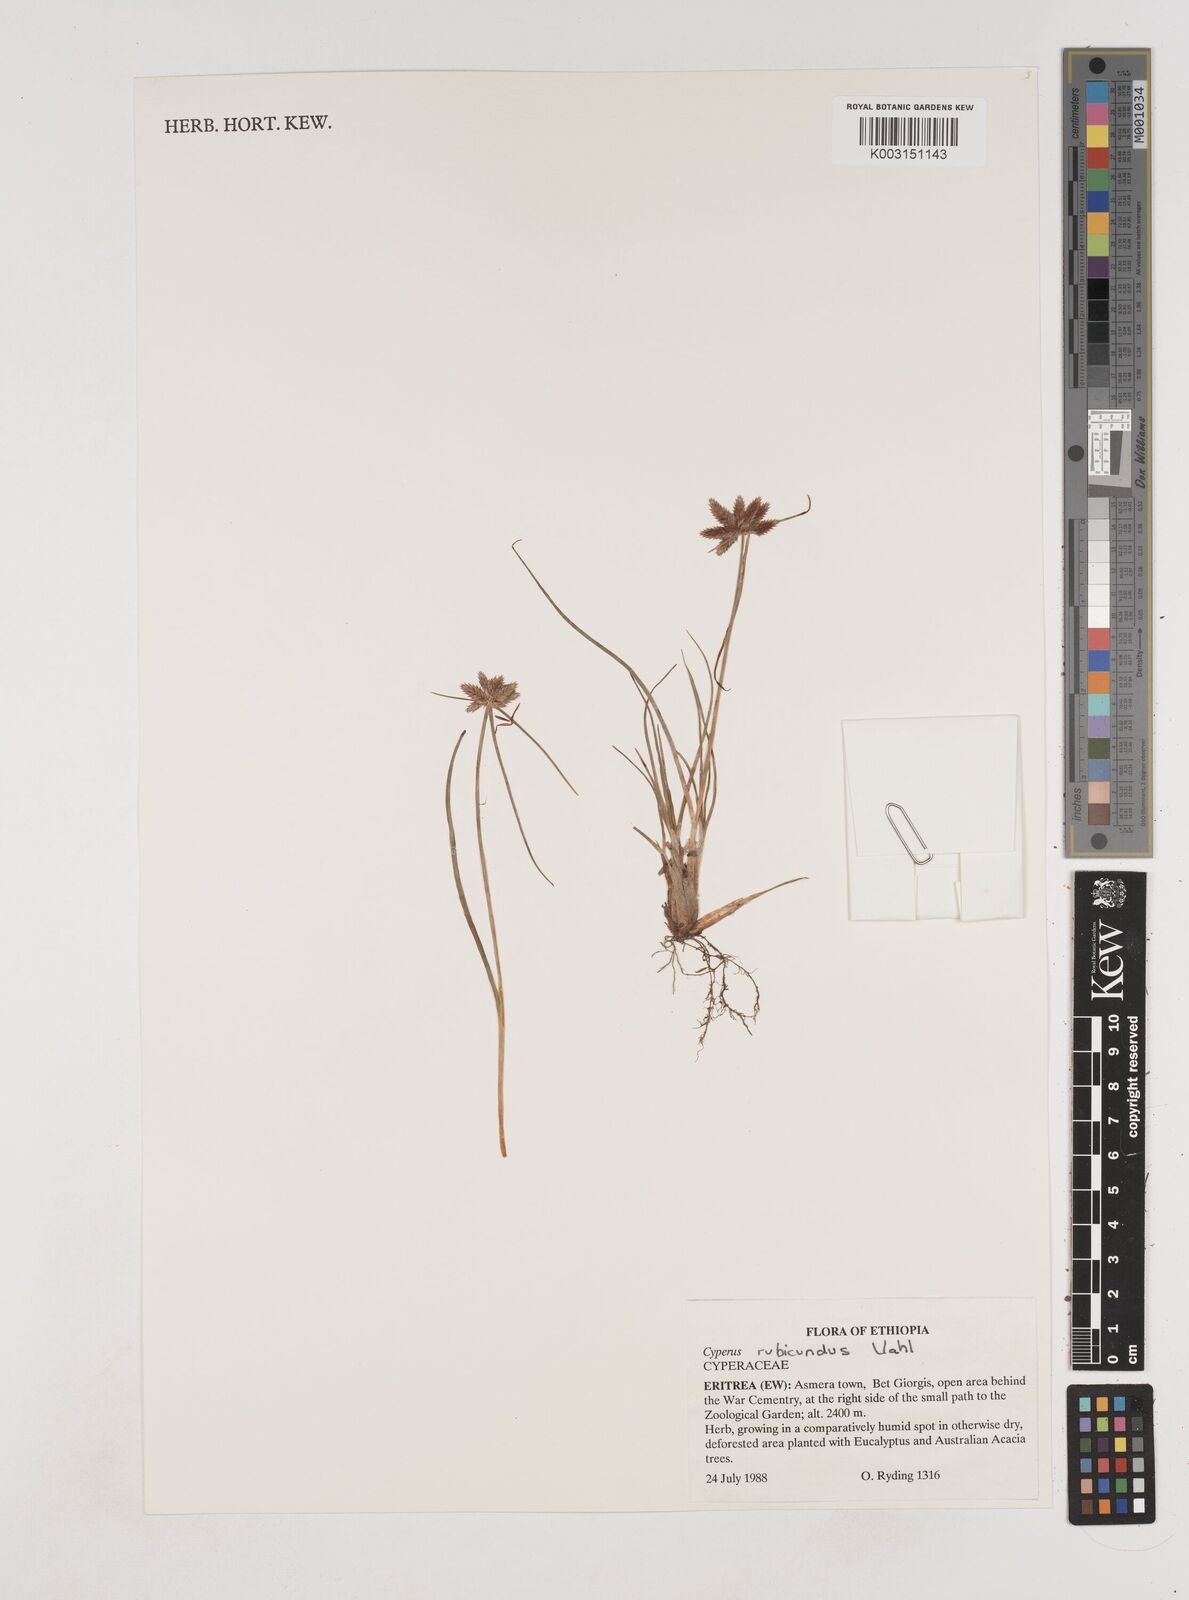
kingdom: Plantae
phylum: Tracheophyta
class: Liliopsida
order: Poales
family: Cyperaceae
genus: Cyperus
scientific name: Cyperus rubicundus
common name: Coco-grass
